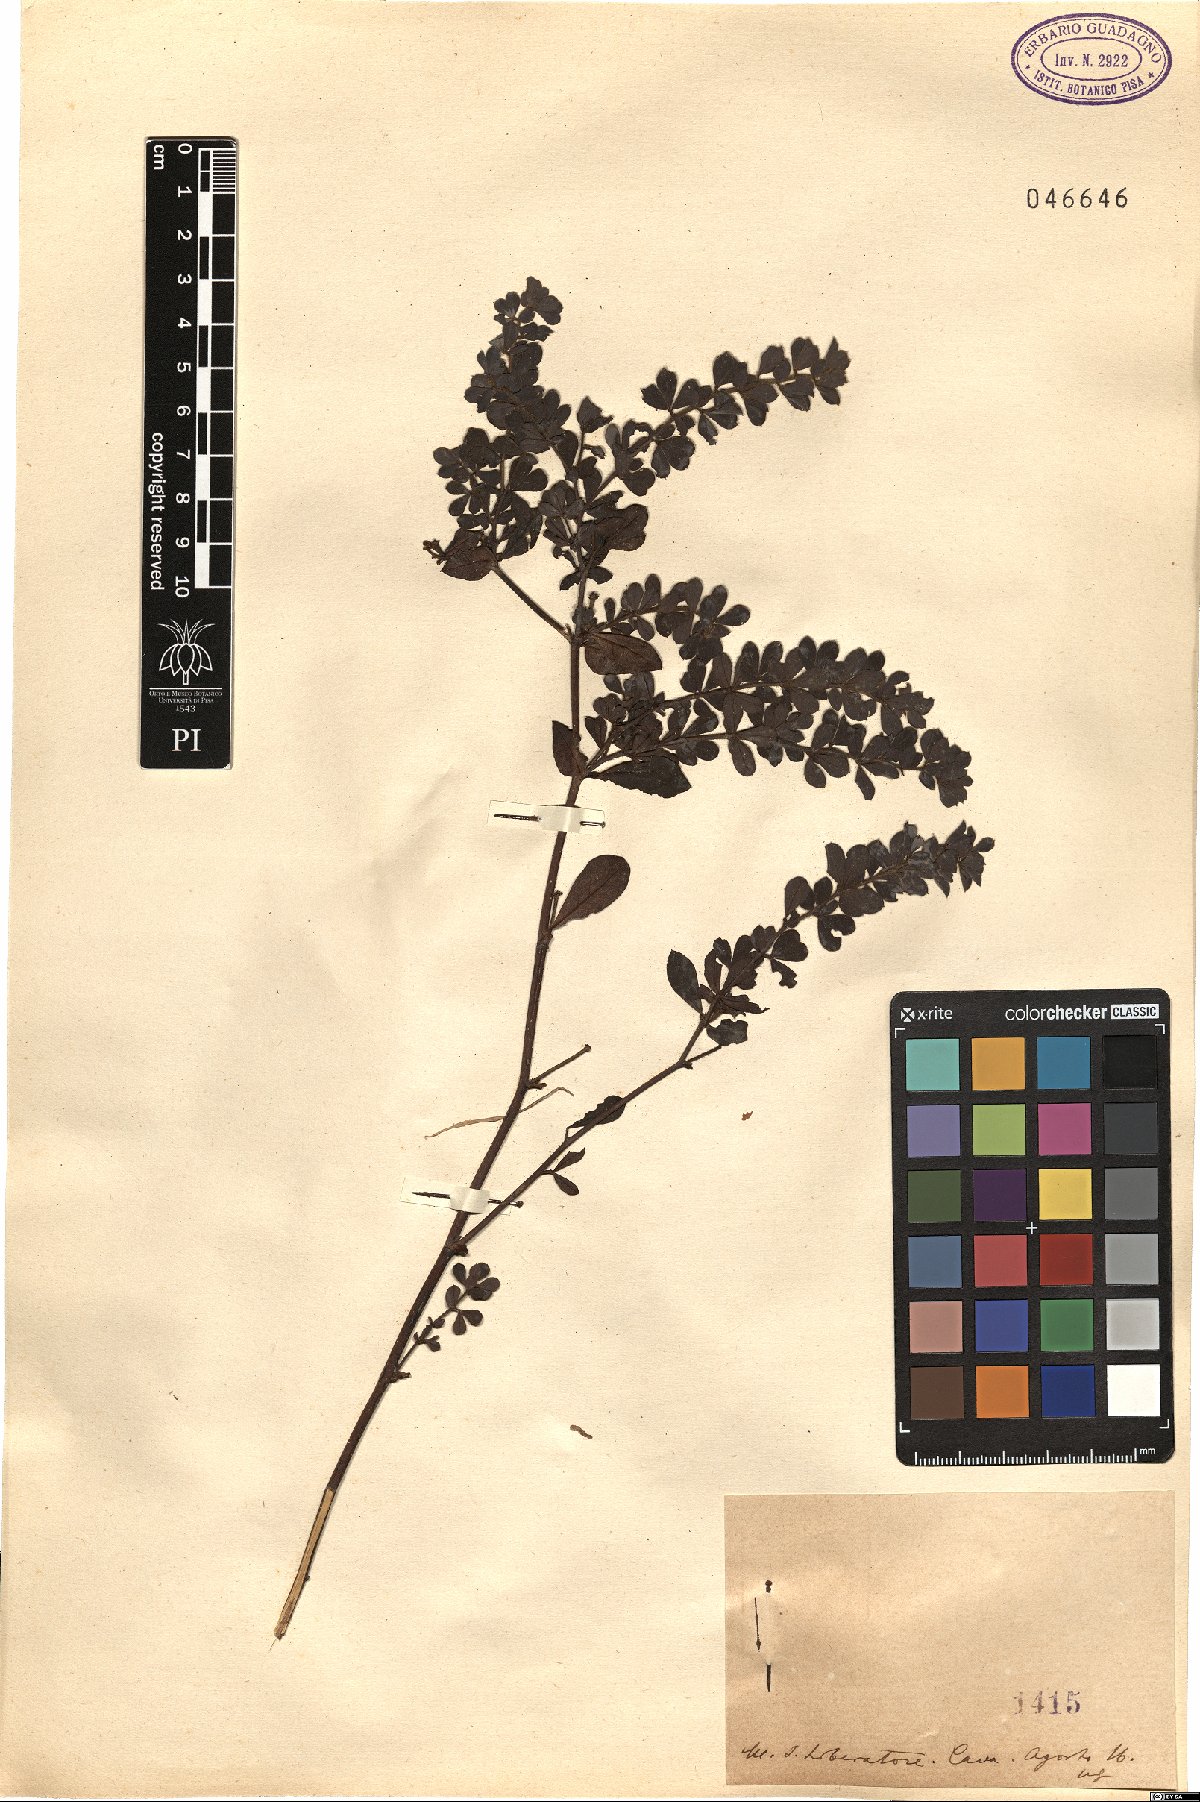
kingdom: Plantae
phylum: Tracheophyta
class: Magnoliopsida
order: Fabales
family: Fabaceae
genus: Lotus
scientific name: Lotus
